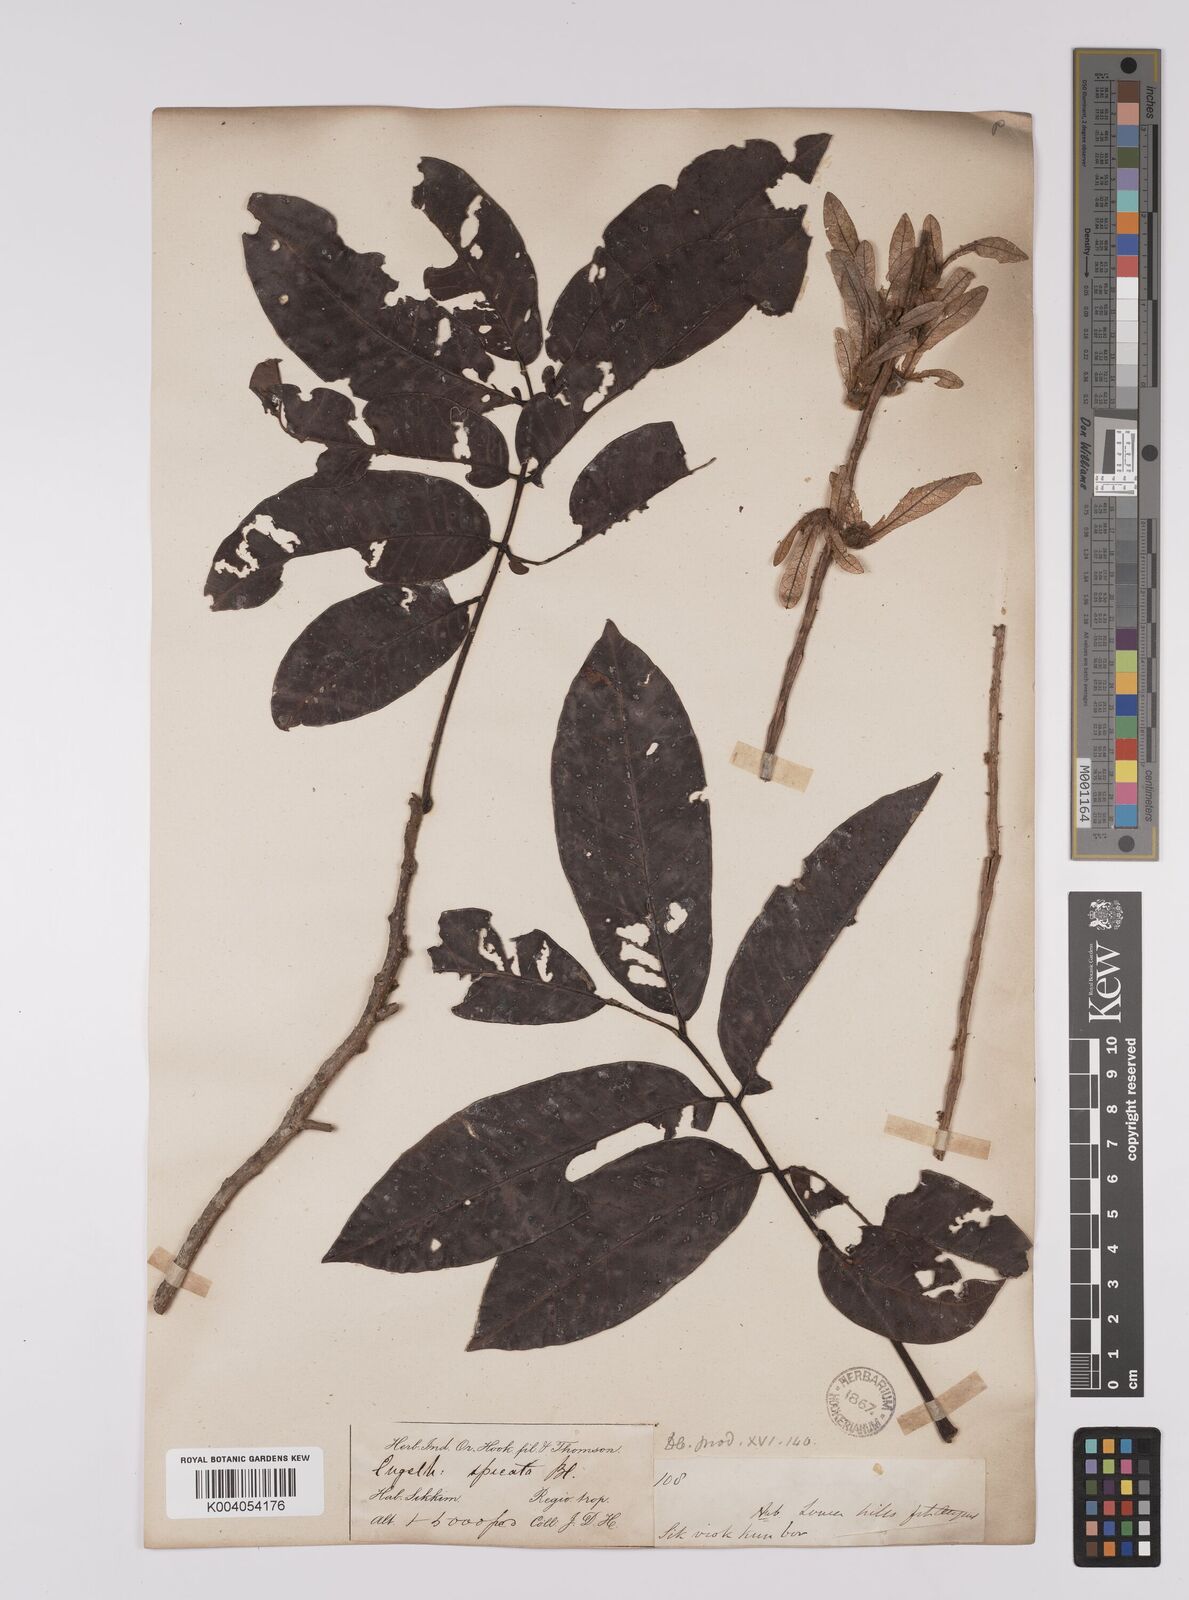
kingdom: Plantae
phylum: Tracheophyta
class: Magnoliopsida
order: Fagales
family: Juglandaceae
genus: Engelhardia
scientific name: Engelhardia spicata
